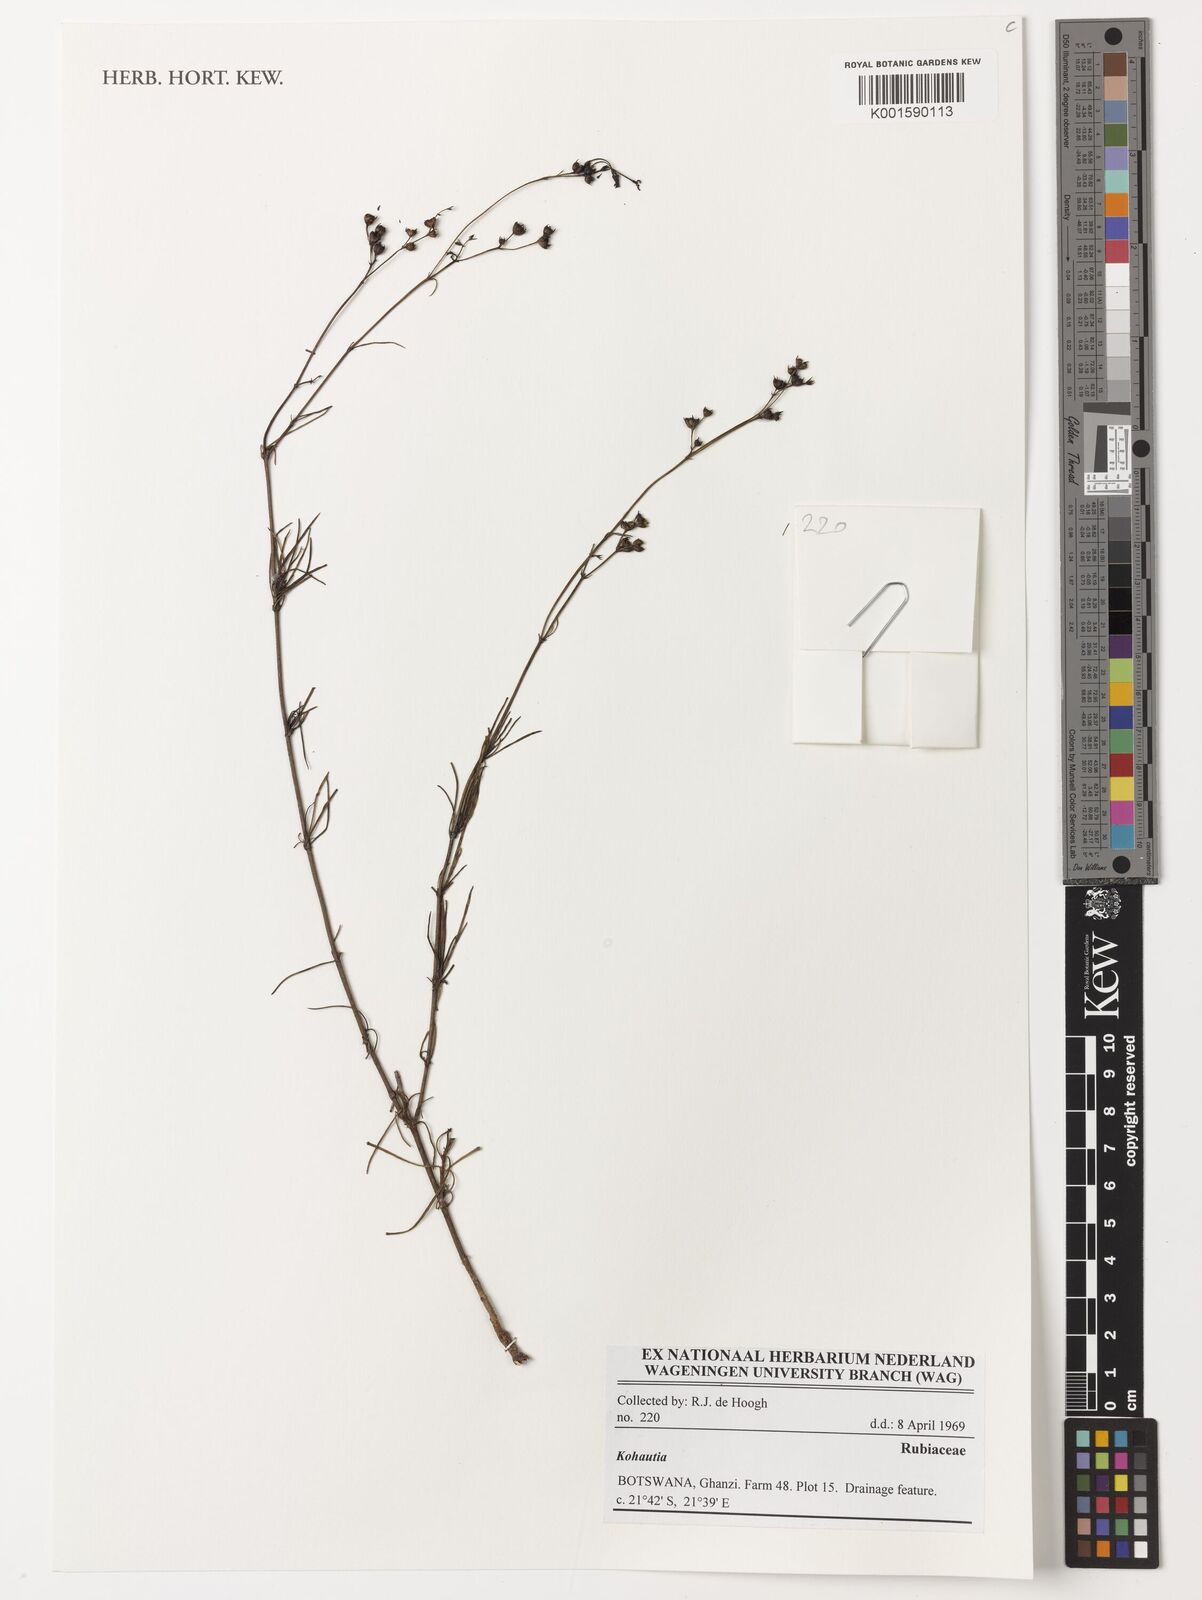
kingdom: Plantae
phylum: Tracheophyta
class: Magnoliopsida
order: Gentianales
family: Rubiaceae
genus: Kohautia
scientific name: Kohautia
